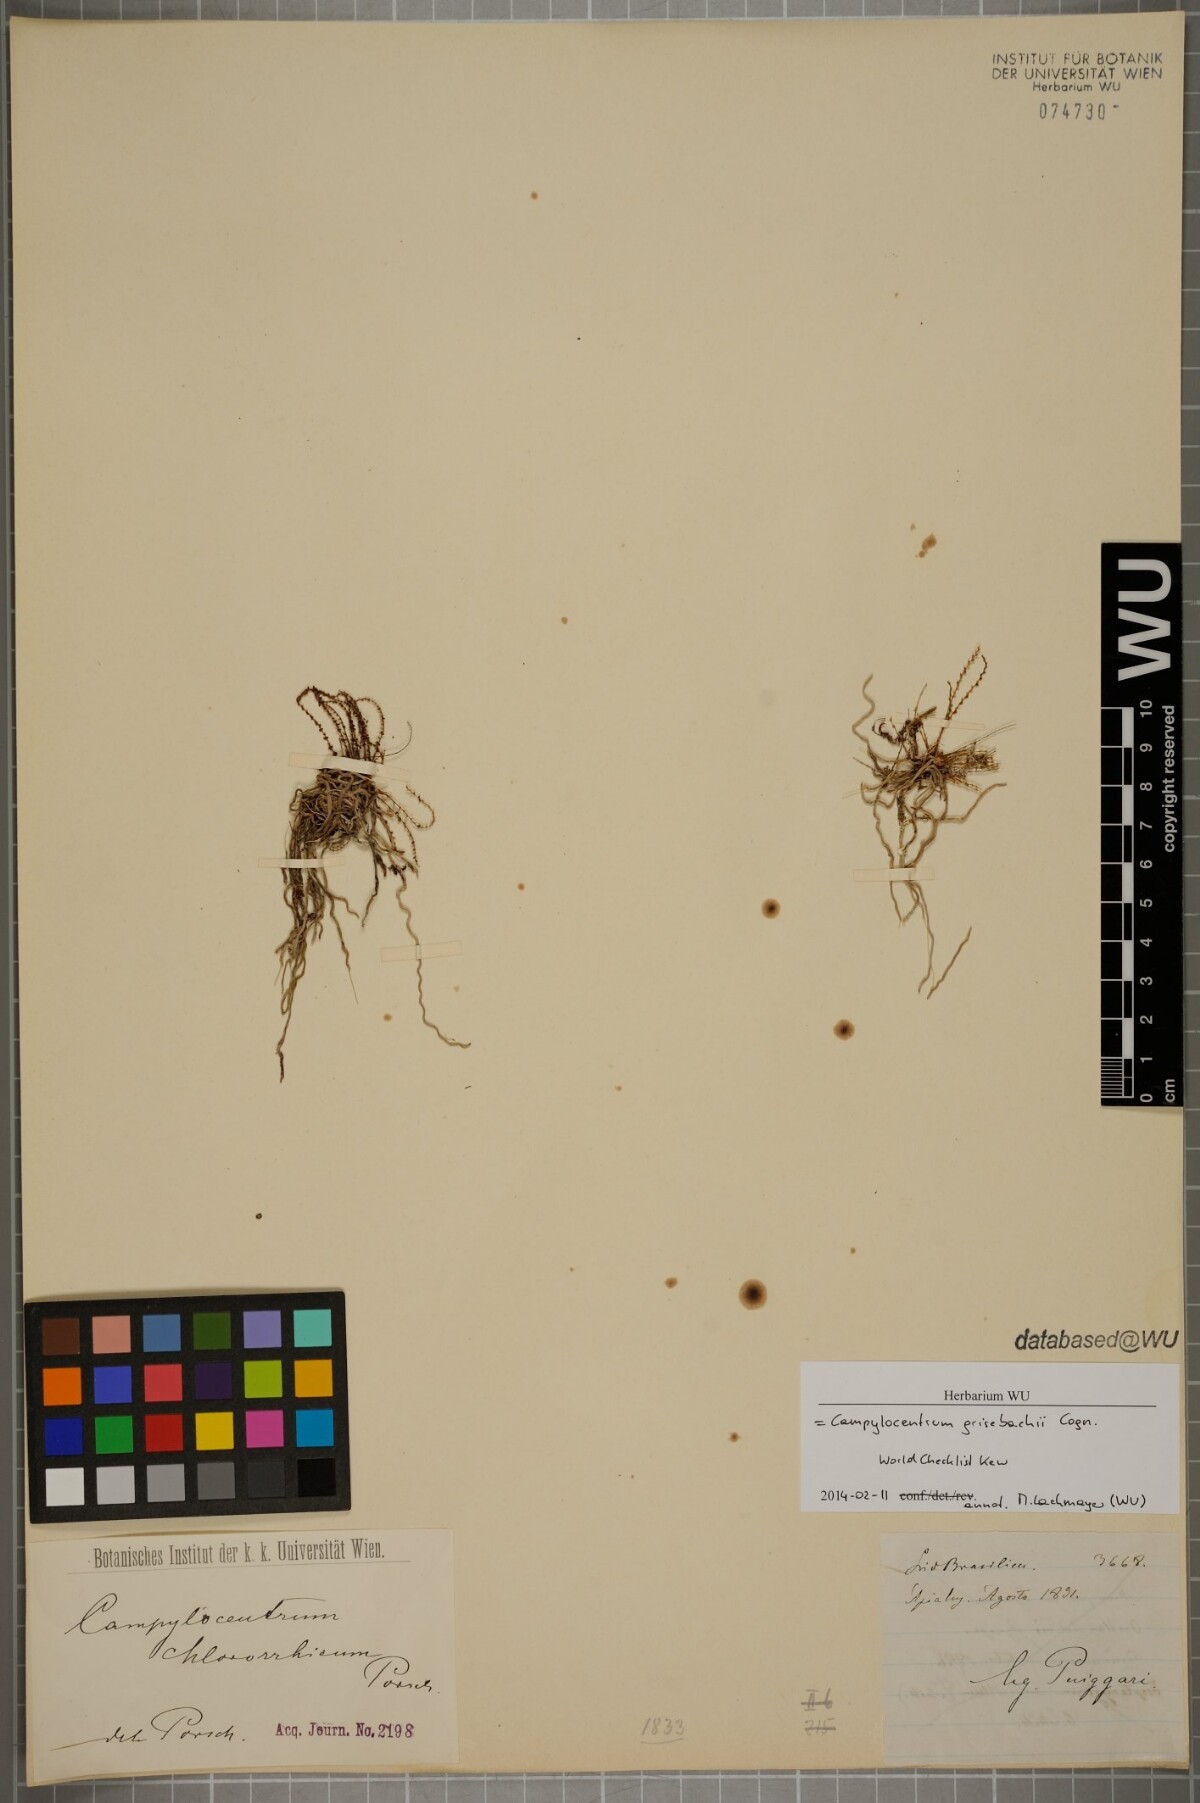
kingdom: Plantae
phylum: Tracheophyta
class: Liliopsida
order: Asparagales
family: Orchidaceae
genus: Campylocentrum
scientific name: Campylocentrum grisebachii
